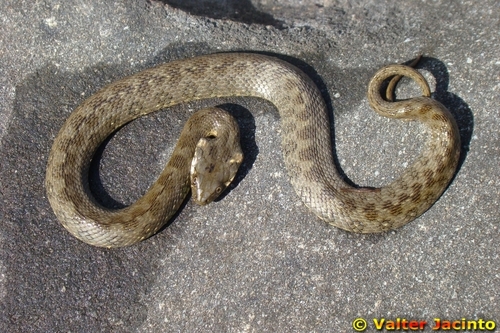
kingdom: Animalia
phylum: Chordata
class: Squamata
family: Colubridae
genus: Natrix
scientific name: Natrix maura
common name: Viperine water snake
